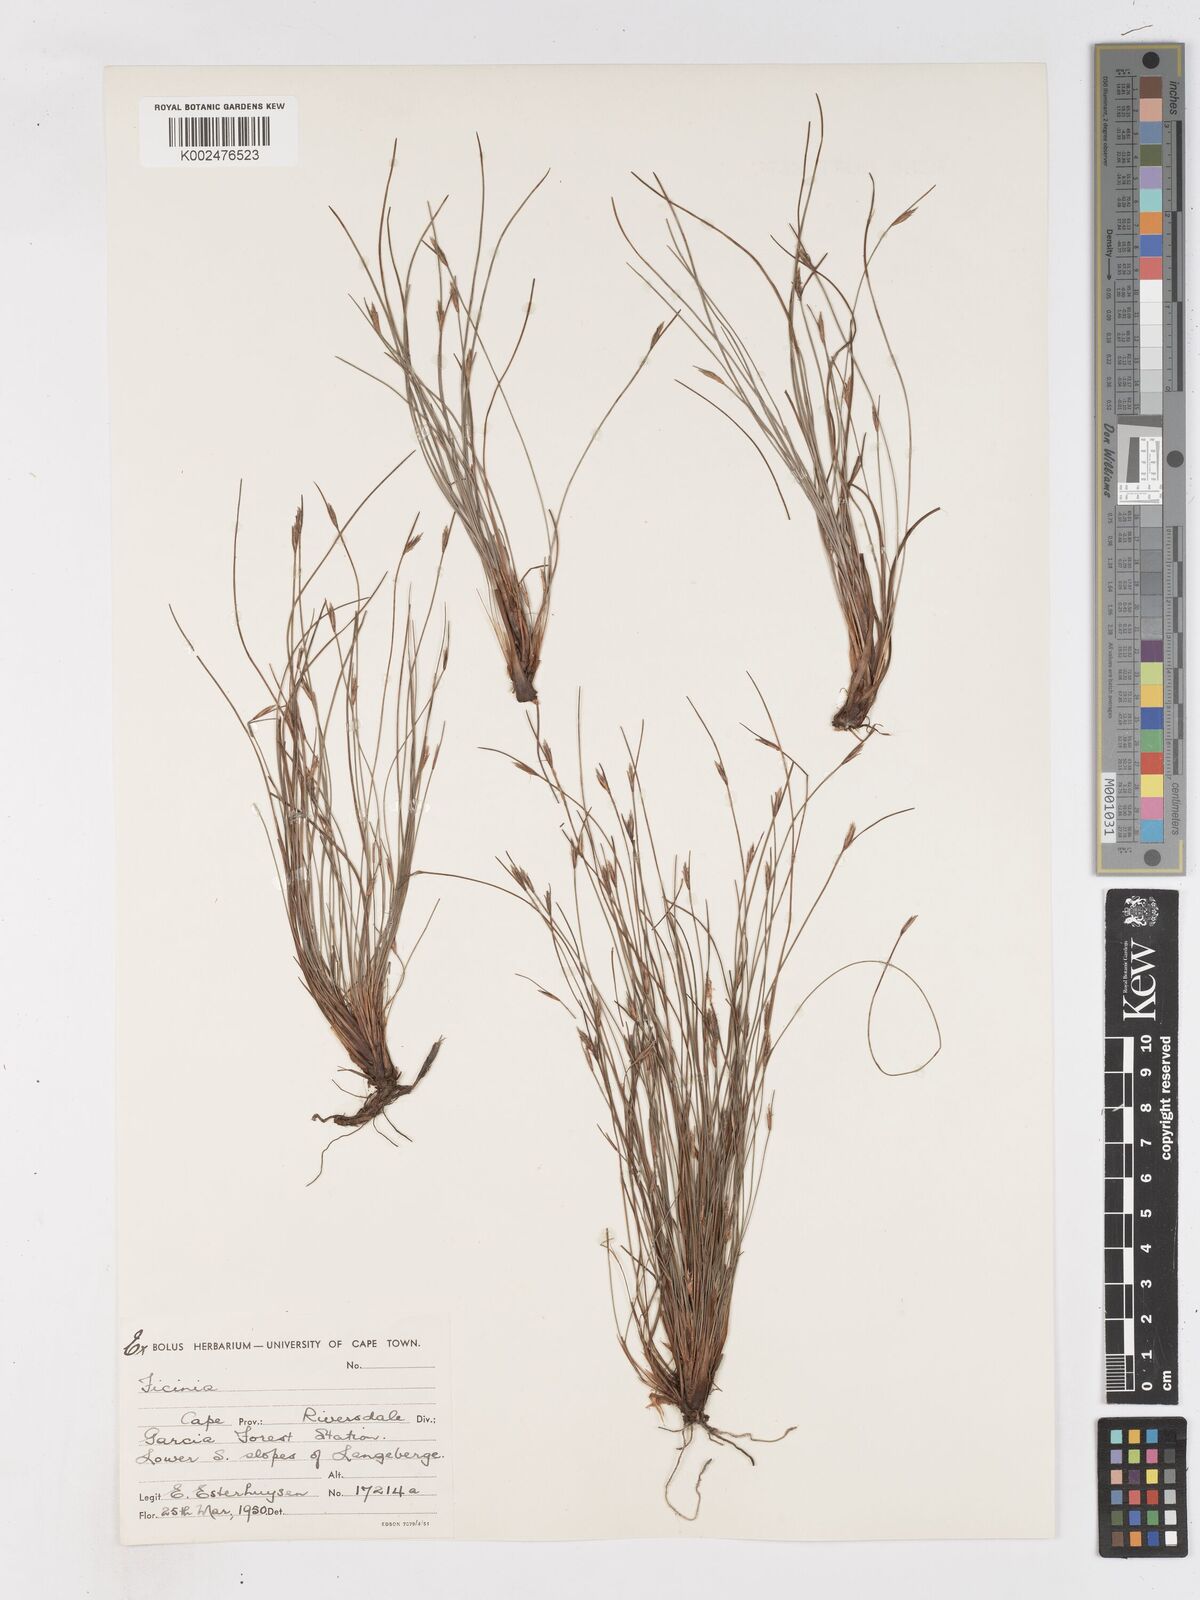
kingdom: Plantae
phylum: Tracheophyta
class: Liliopsida
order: Poales
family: Cyperaceae
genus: Ficinia
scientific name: Ficinia acuminata
